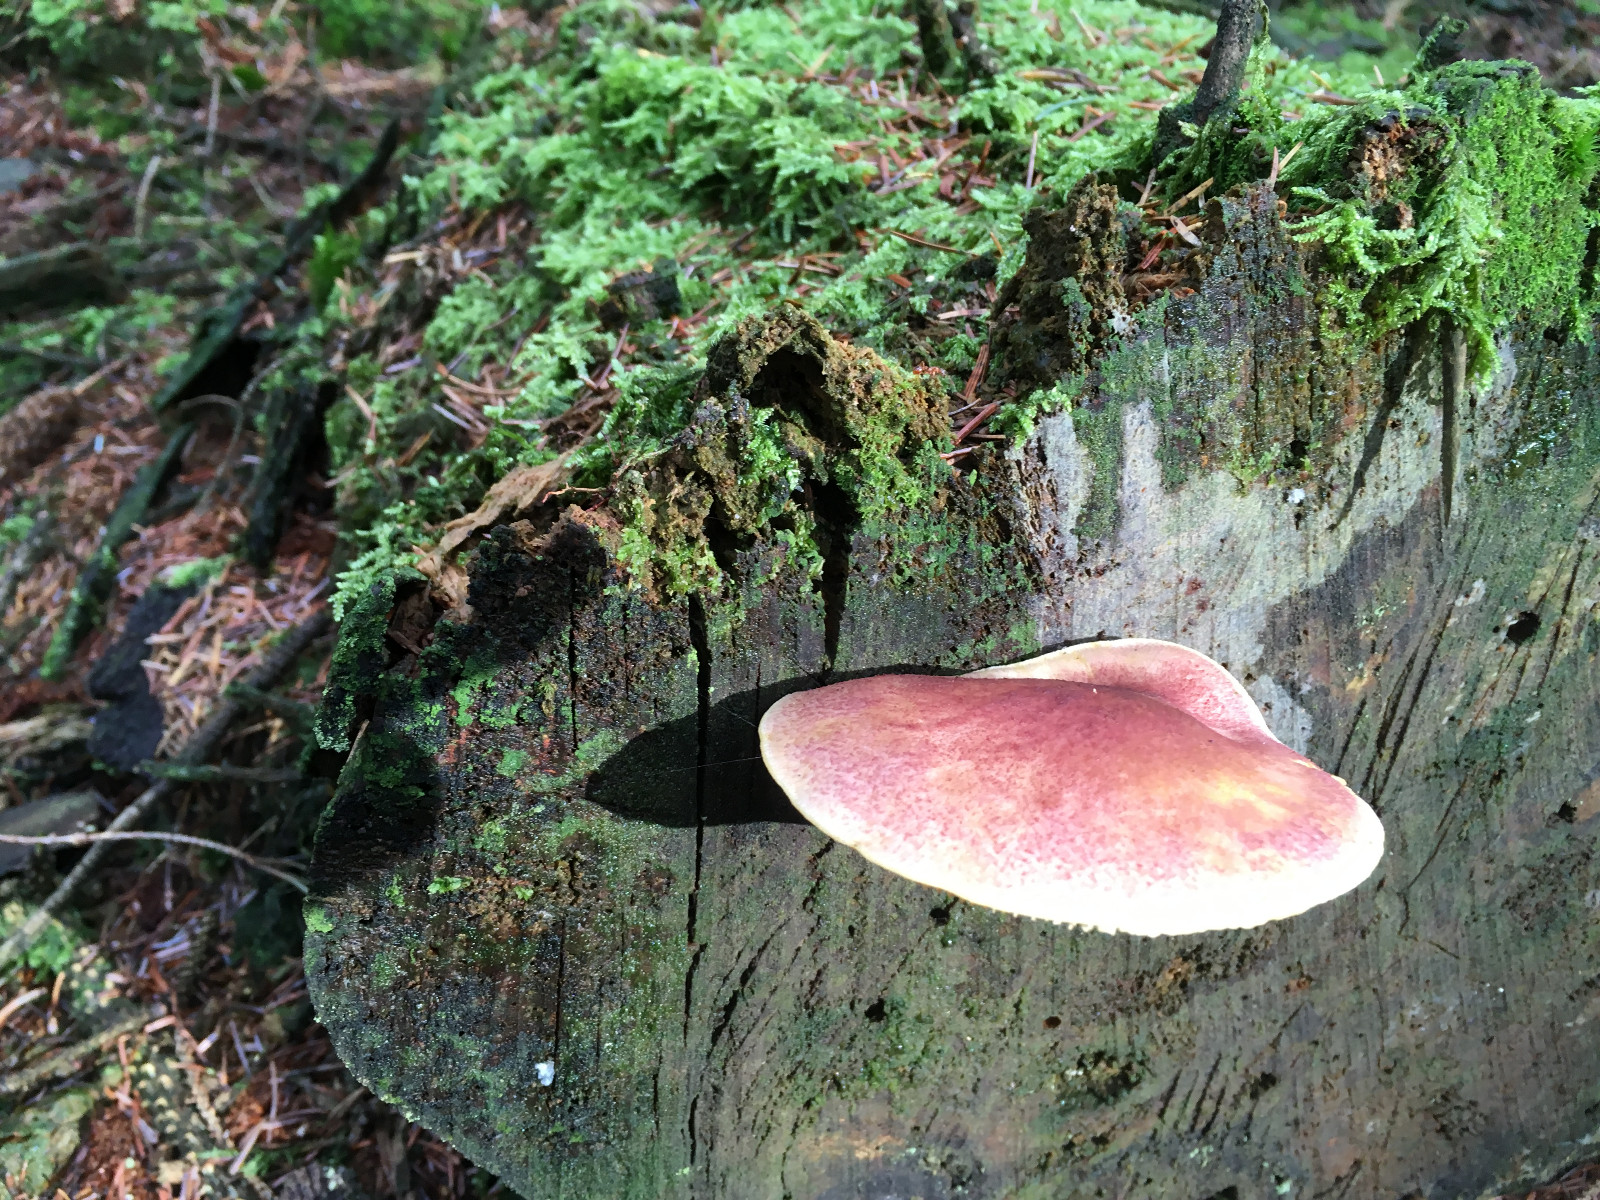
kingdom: Fungi
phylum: Basidiomycota
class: Agaricomycetes
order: Agaricales
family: Tricholomataceae
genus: Tricholomopsis
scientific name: Tricholomopsis rutilans
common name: purpur-væbnerhat
